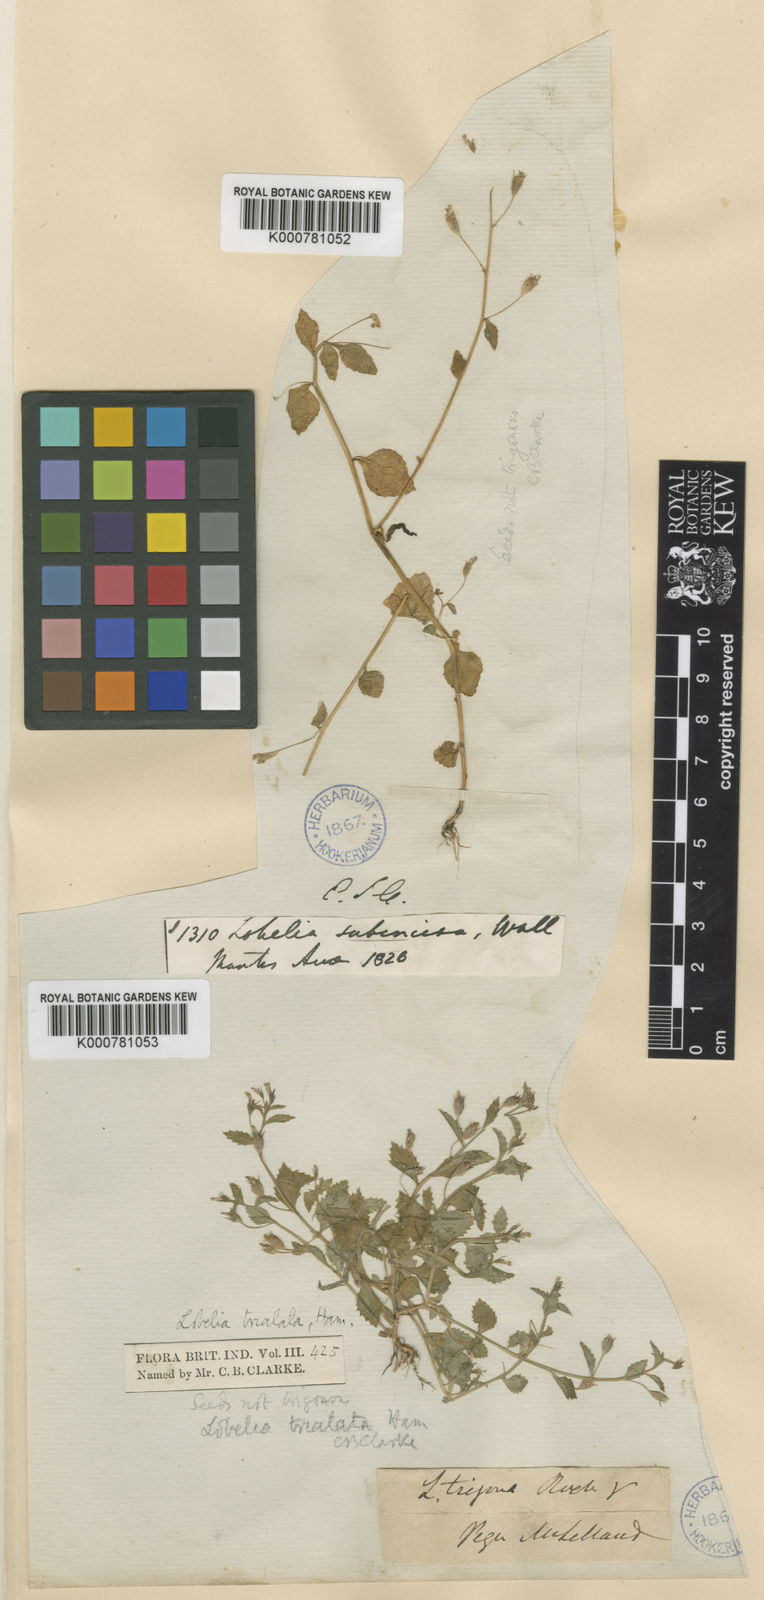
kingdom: Plantae
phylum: Tracheophyta
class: Magnoliopsida
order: Asterales
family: Campanulaceae
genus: Lobelia
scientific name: Lobelia heyneana
